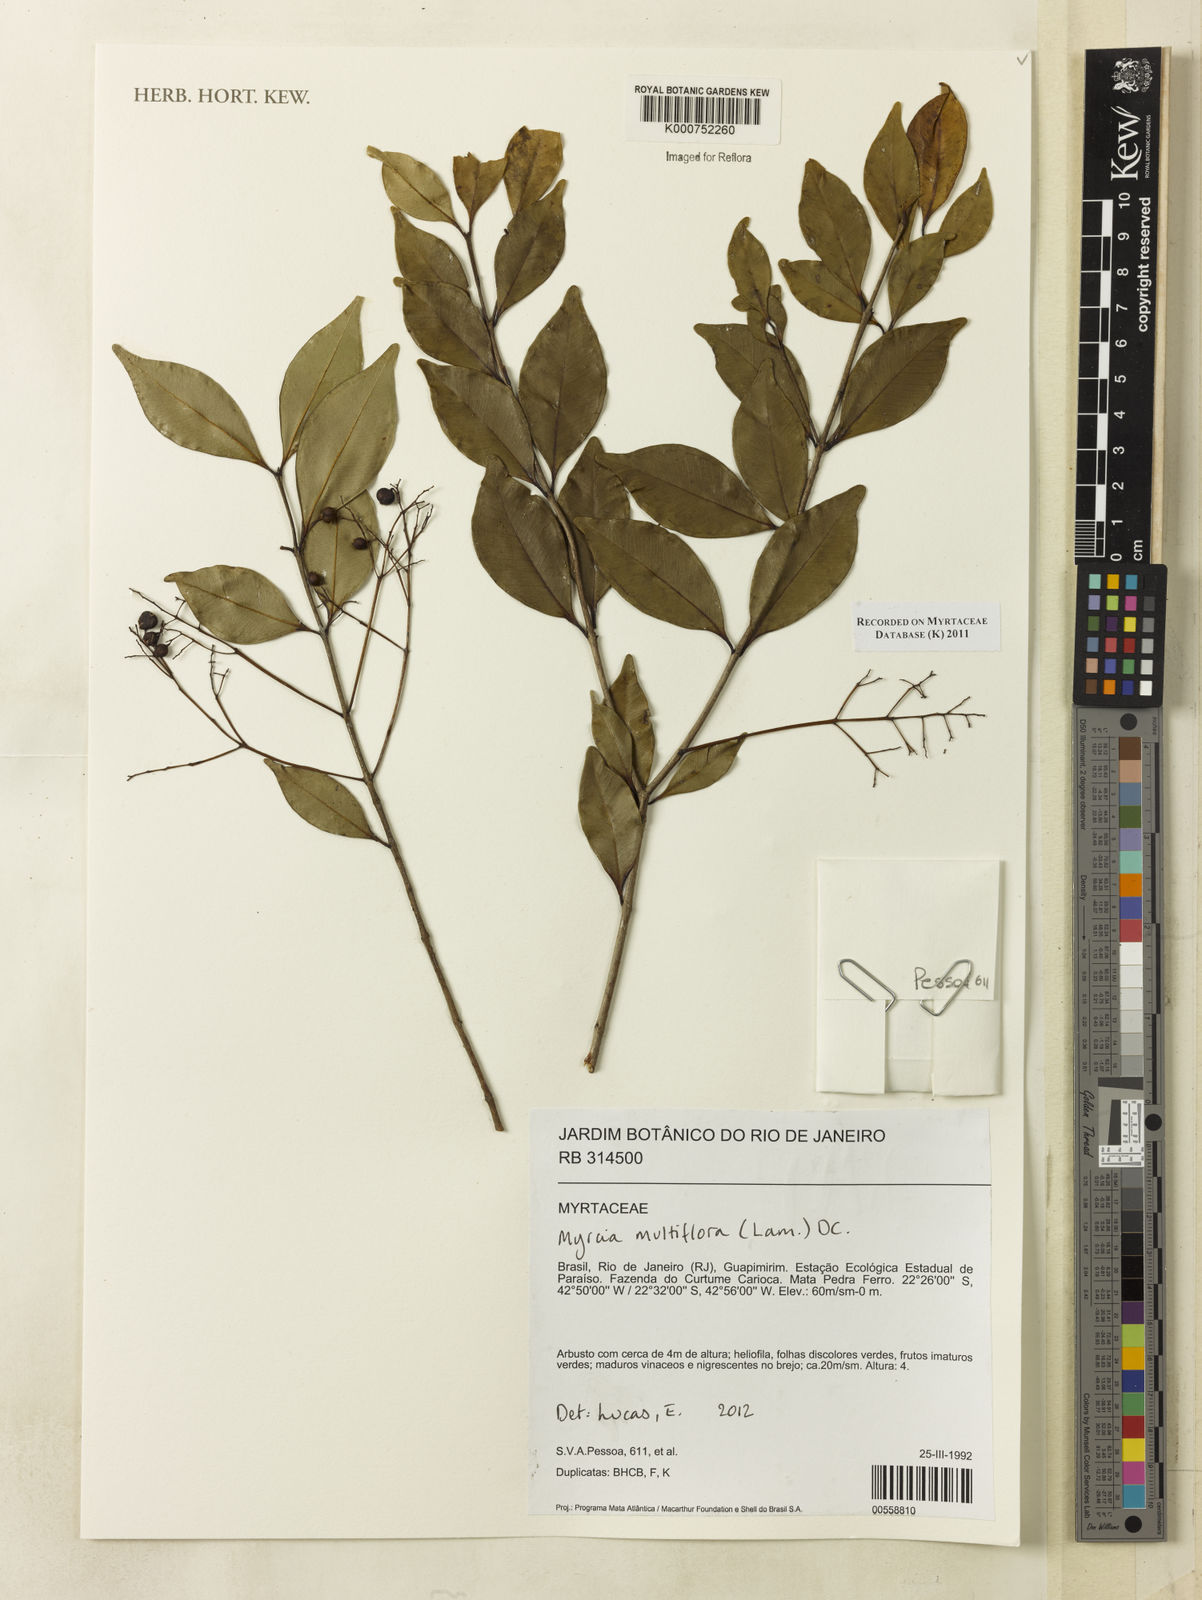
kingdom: Plantae
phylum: Tracheophyta
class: Magnoliopsida
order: Myrtales
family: Myrtaceae
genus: Myrcia
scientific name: Myrcia multiflora
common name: Pedra hume
